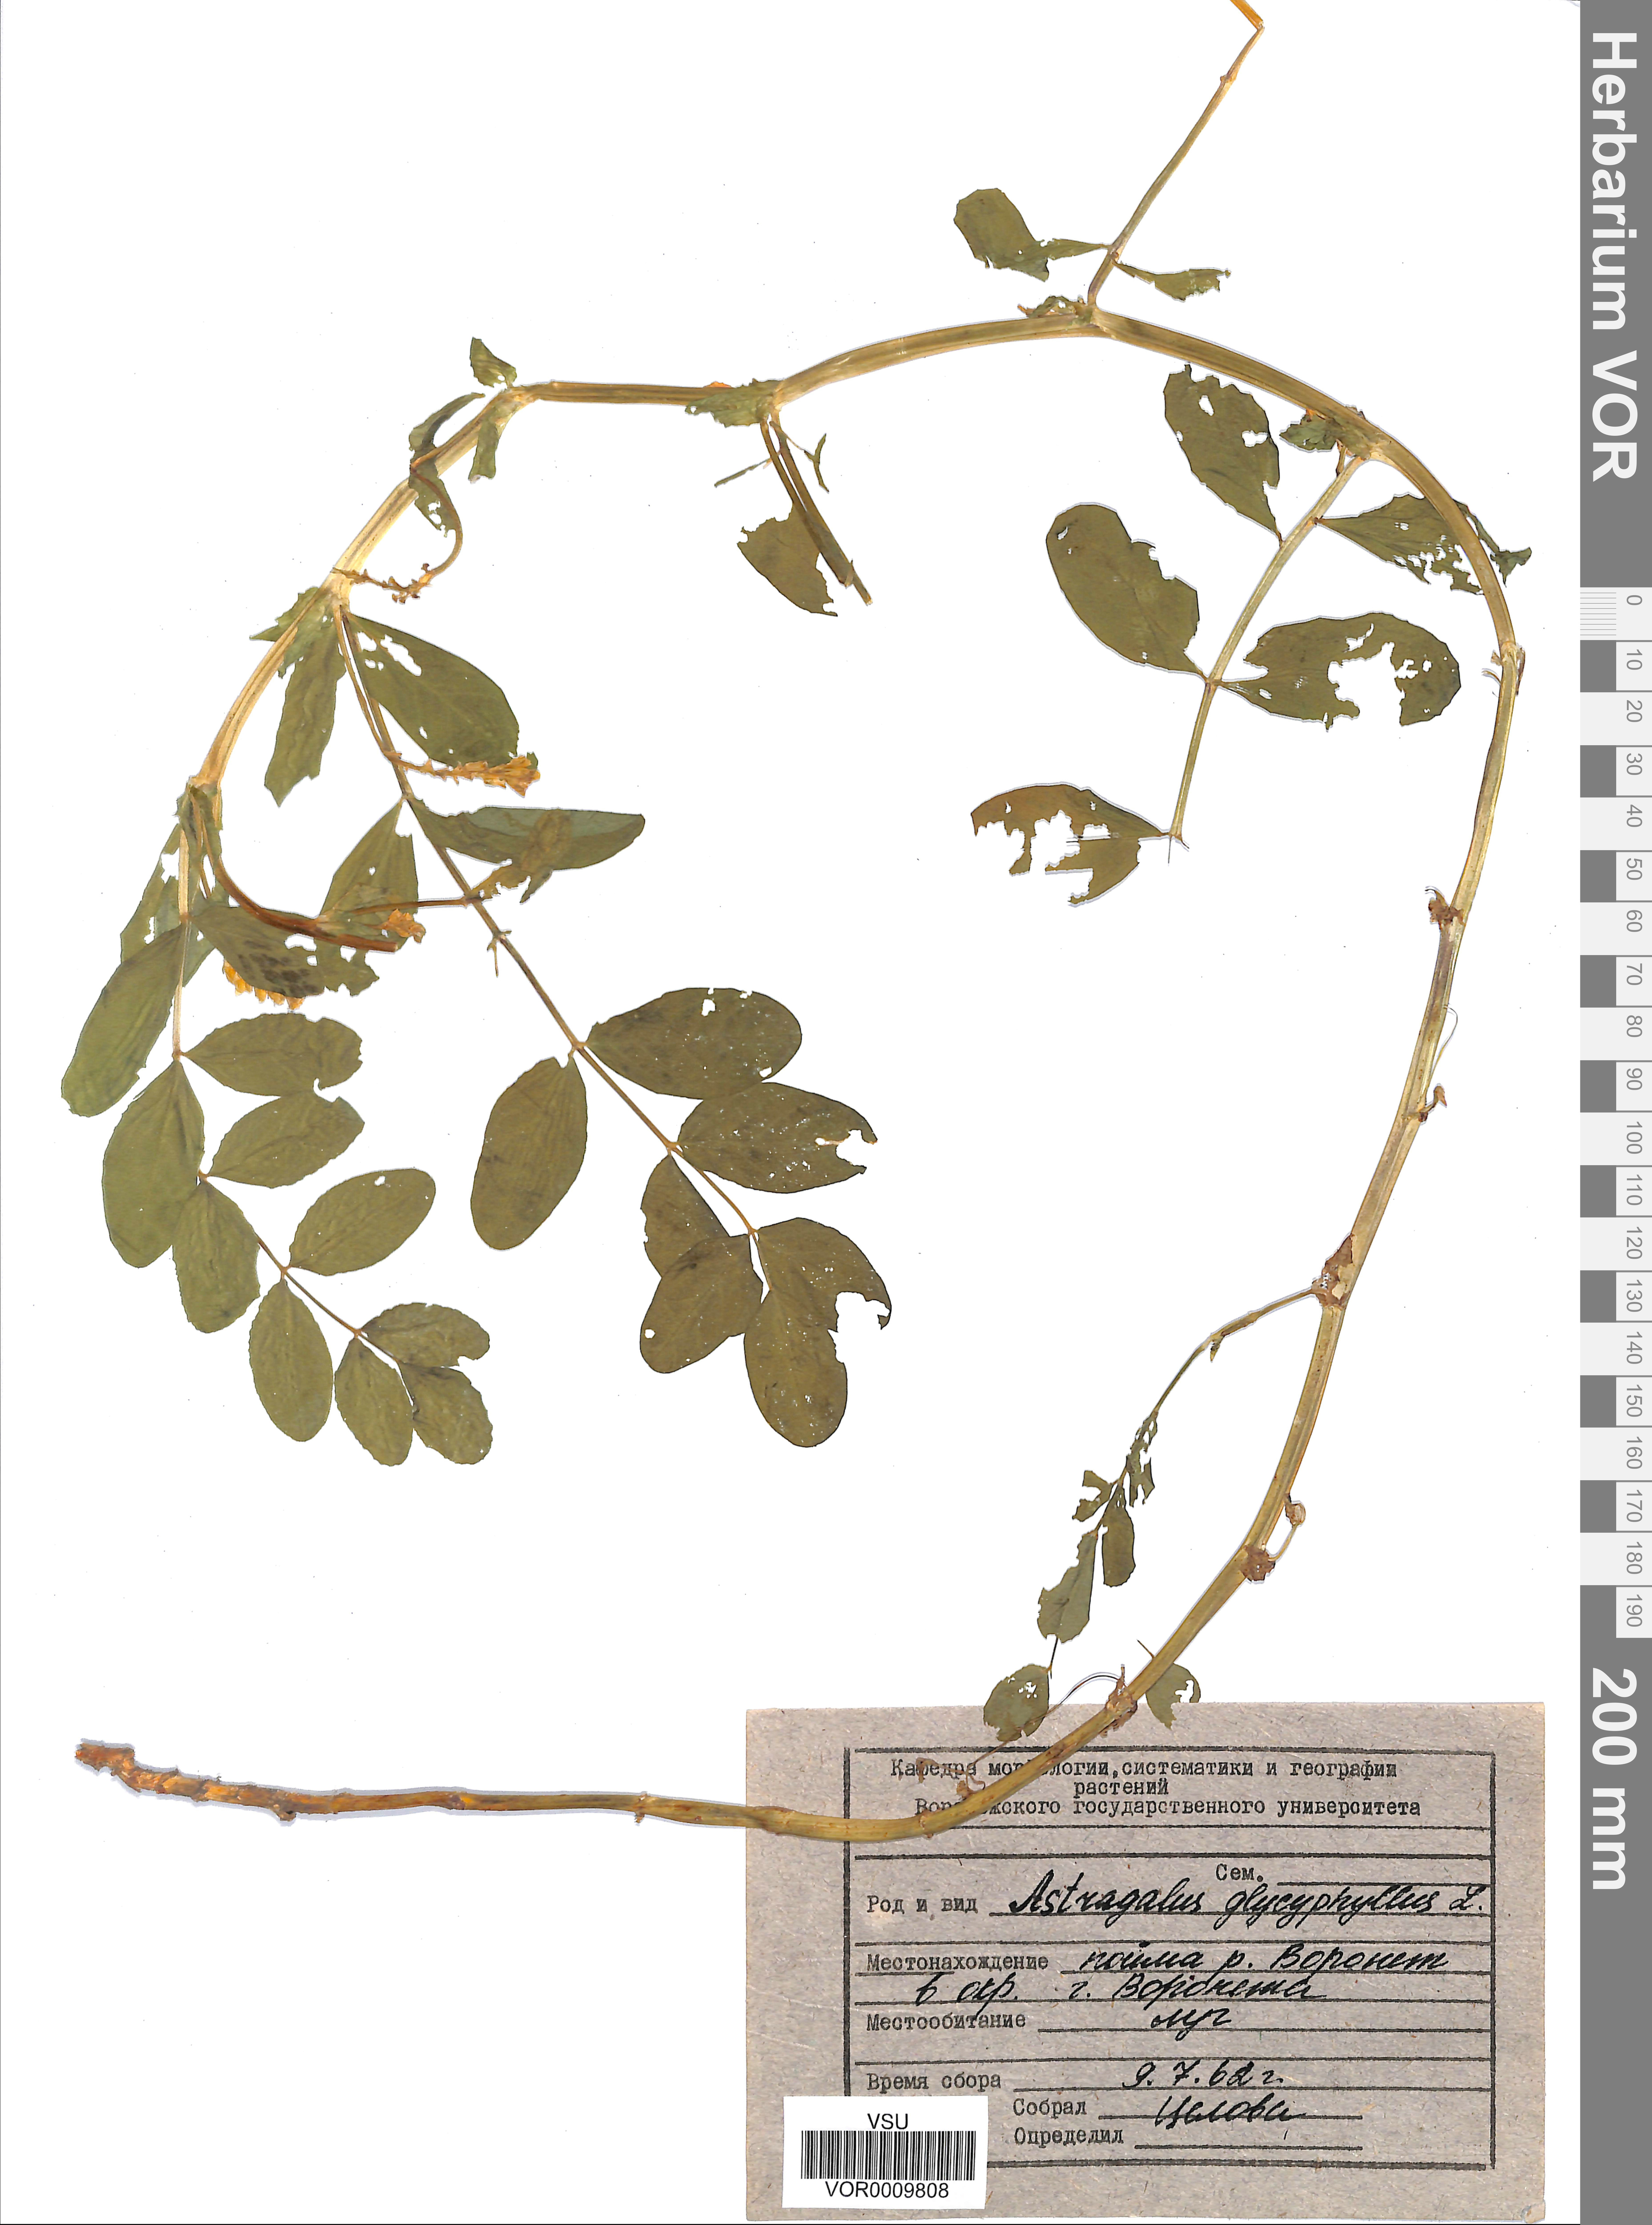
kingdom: Plantae
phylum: Tracheophyta
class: Magnoliopsida
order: Fabales
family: Fabaceae
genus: Astragalus
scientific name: Astragalus glycyphyllos
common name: Wild liquorice
